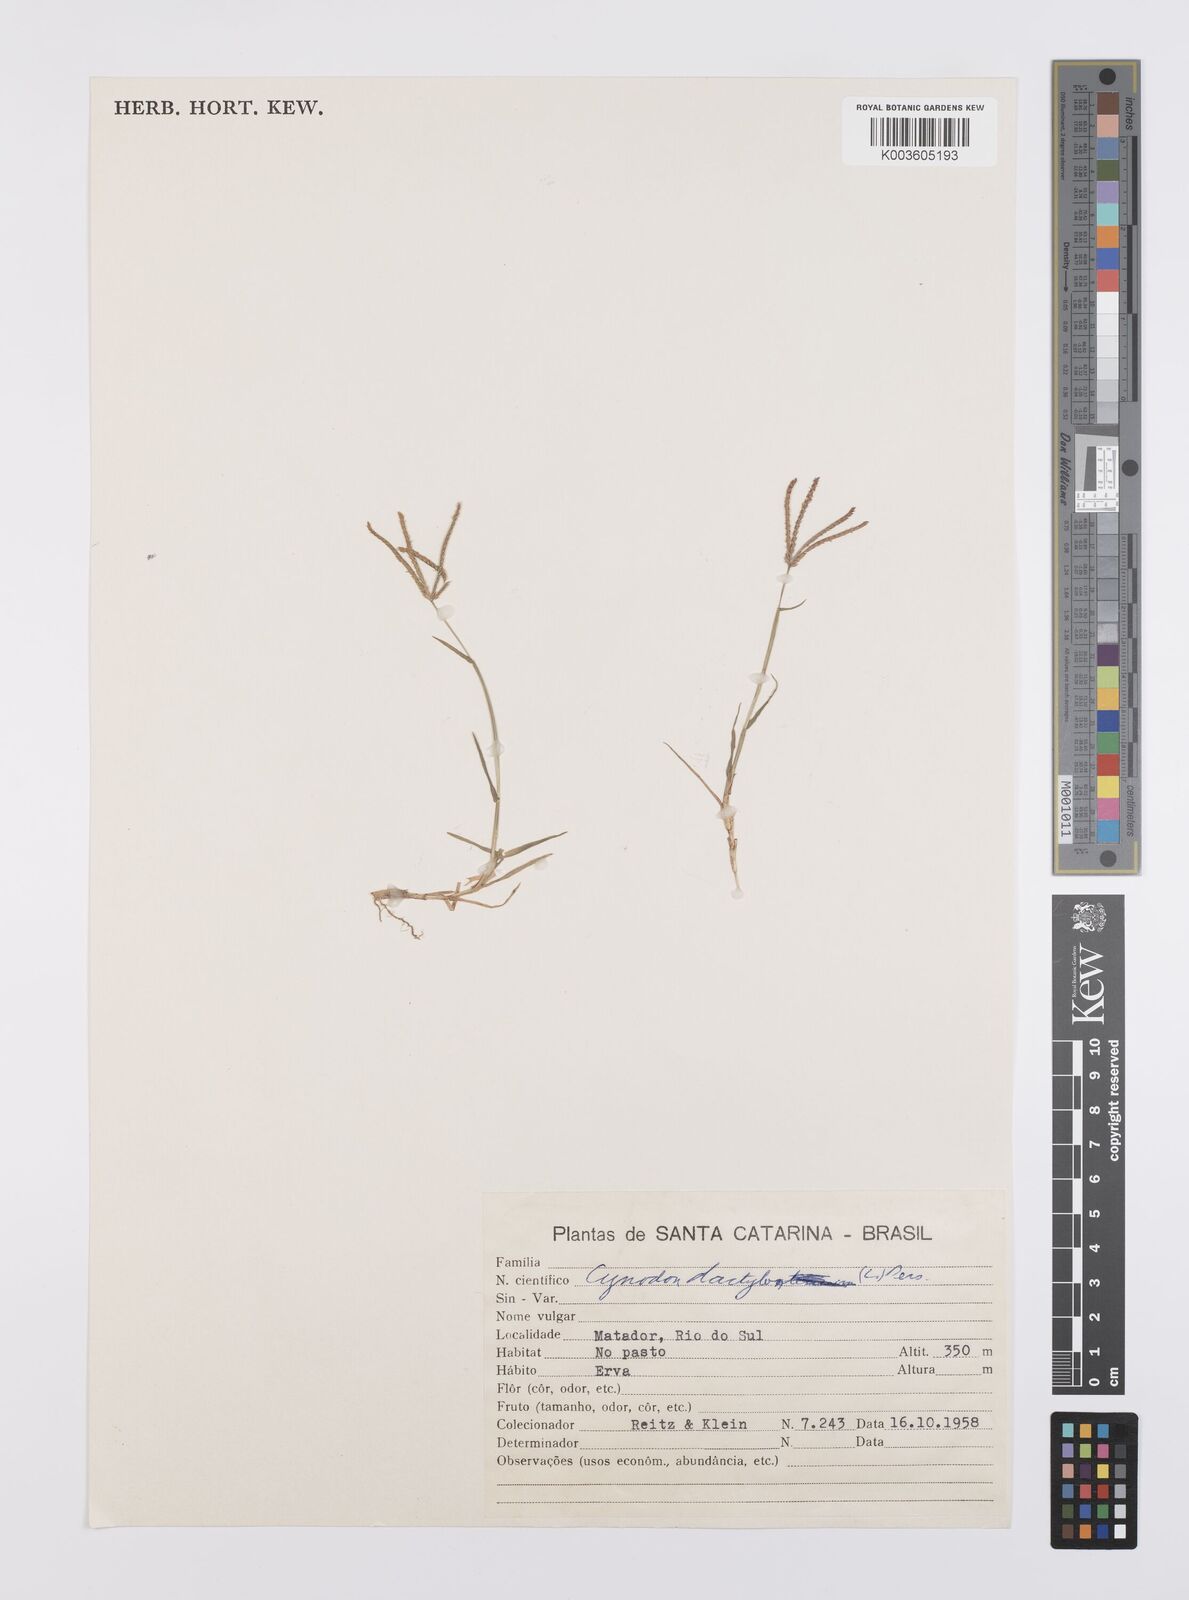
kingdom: Plantae
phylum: Tracheophyta
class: Liliopsida
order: Poales
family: Poaceae
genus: Cynodon
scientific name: Cynodon dactylon
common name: Bermuda grass
